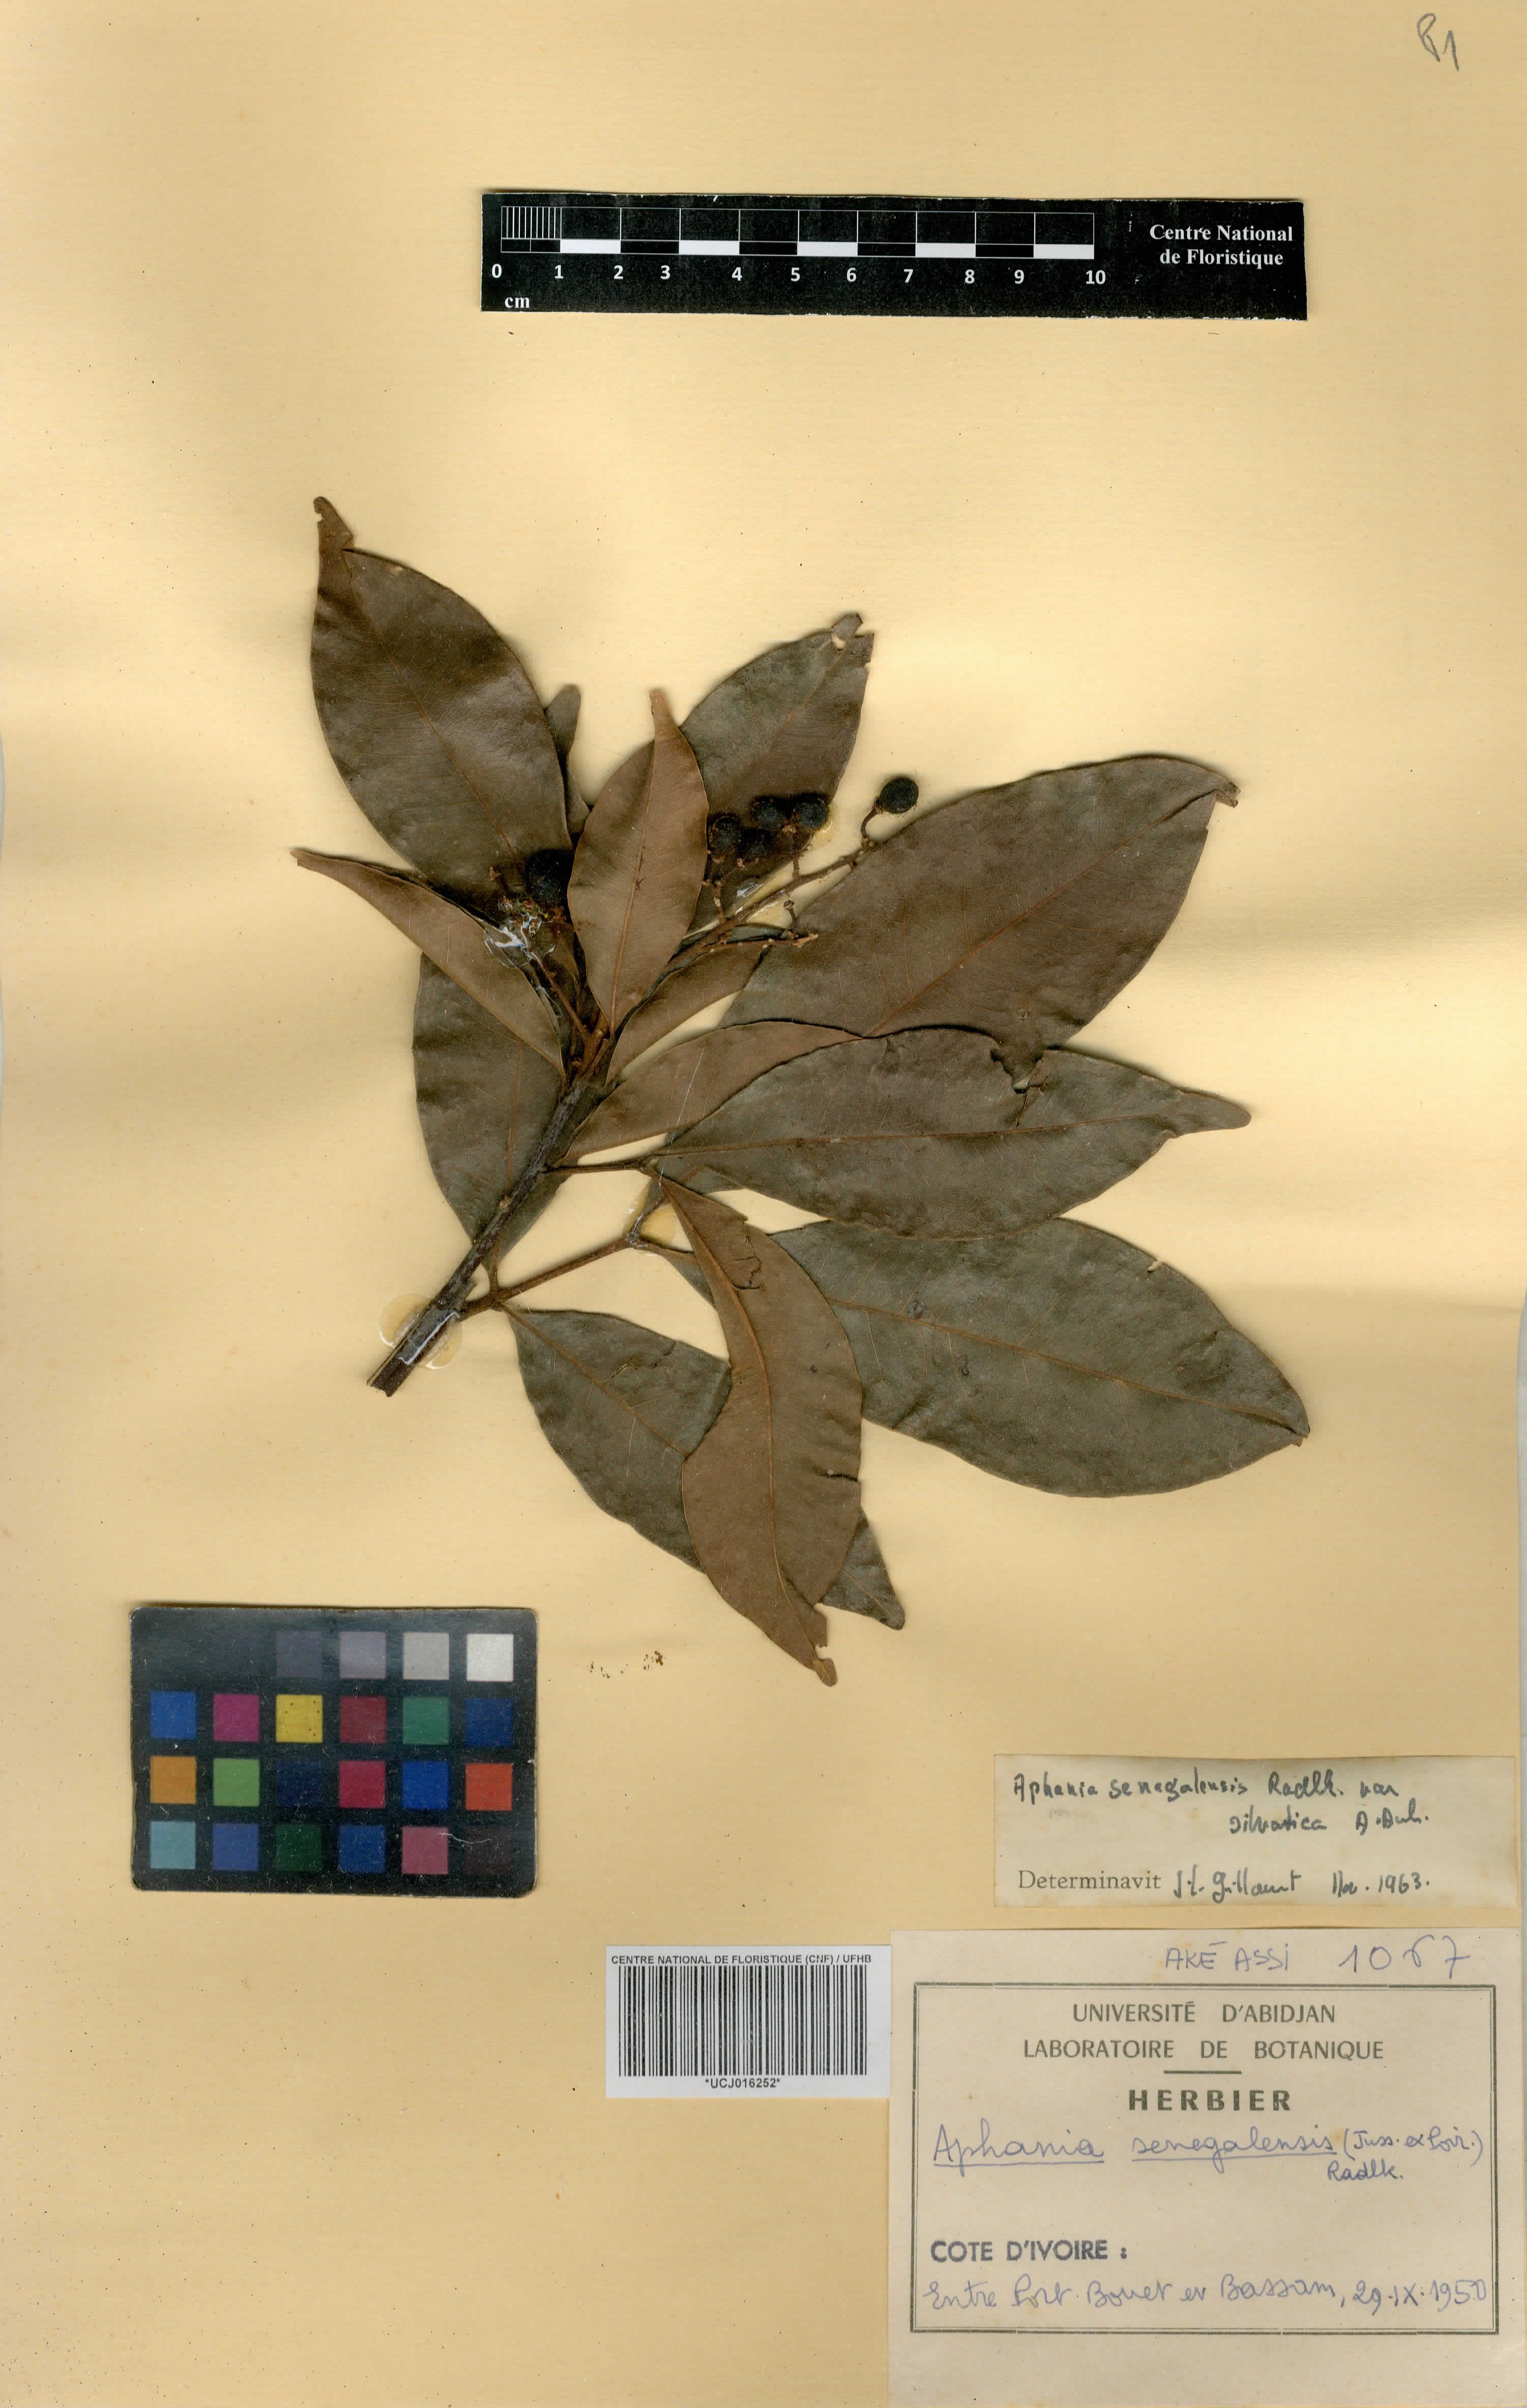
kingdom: Plantae
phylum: Tracheophyta
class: Magnoliopsida
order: Sapindales
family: Sapindaceae
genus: Lepisanthes
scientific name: Lepisanthes senegalensis
